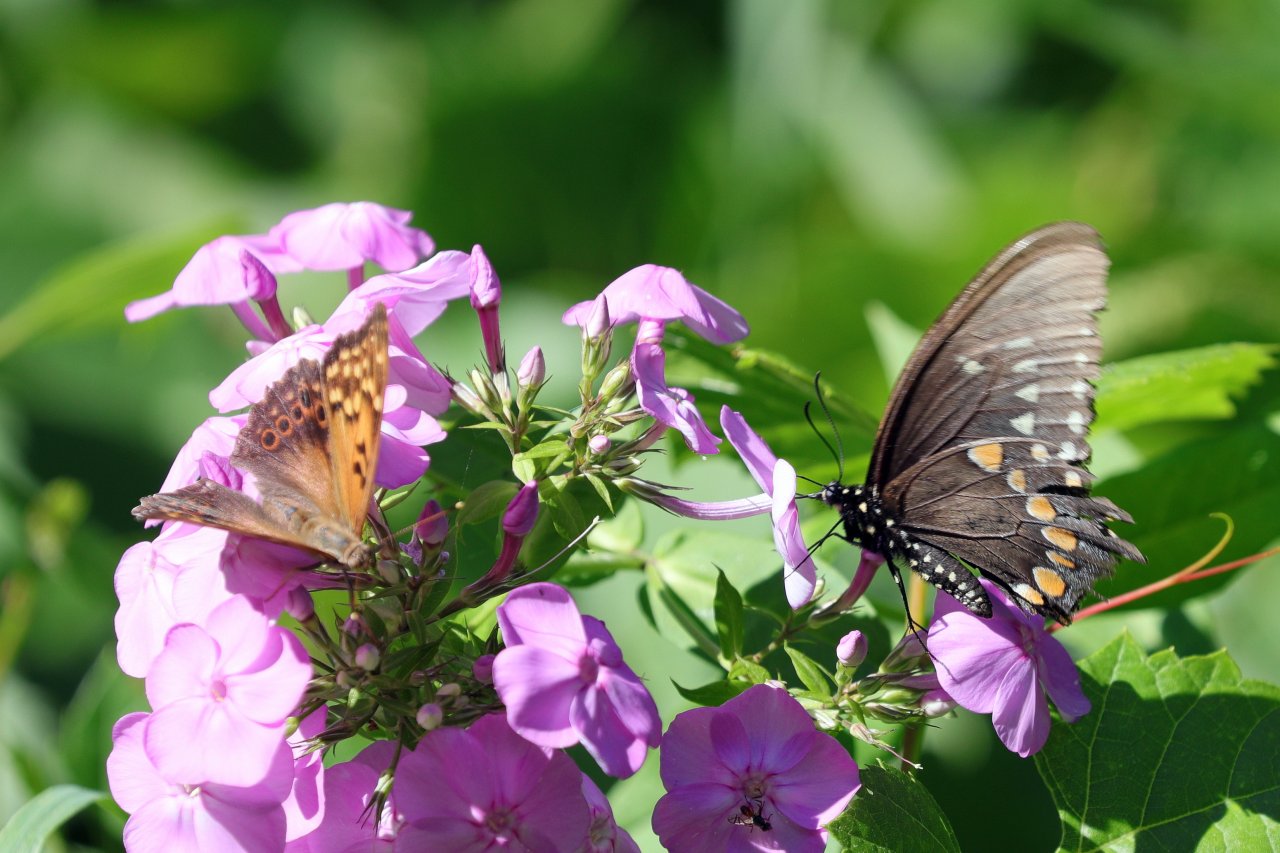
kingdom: Animalia
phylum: Arthropoda
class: Insecta
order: Lepidoptera
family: Papilionidae
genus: Pterourus
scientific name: Pterourus troilus
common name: Spicebush Swallowtail
